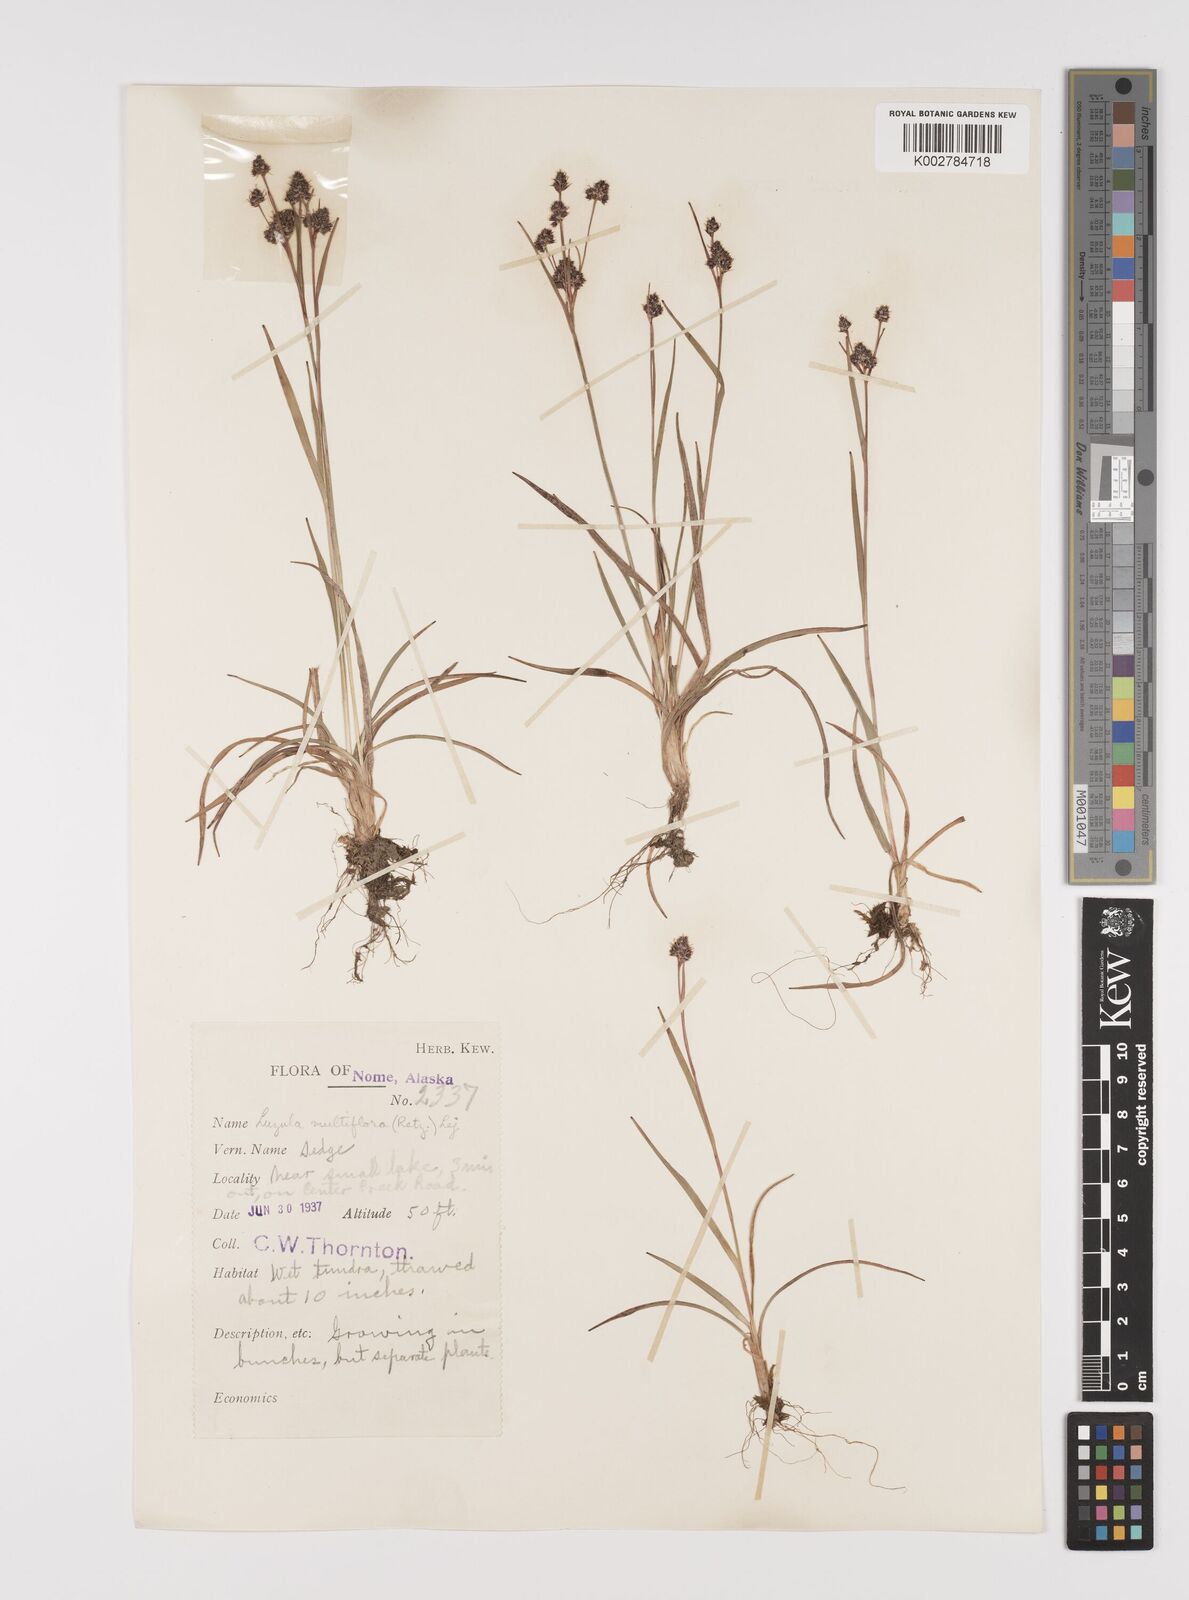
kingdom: Plantae
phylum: Tracheophyta
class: Liliopsida
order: Poales
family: Juncaceae
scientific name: Juncaceae
